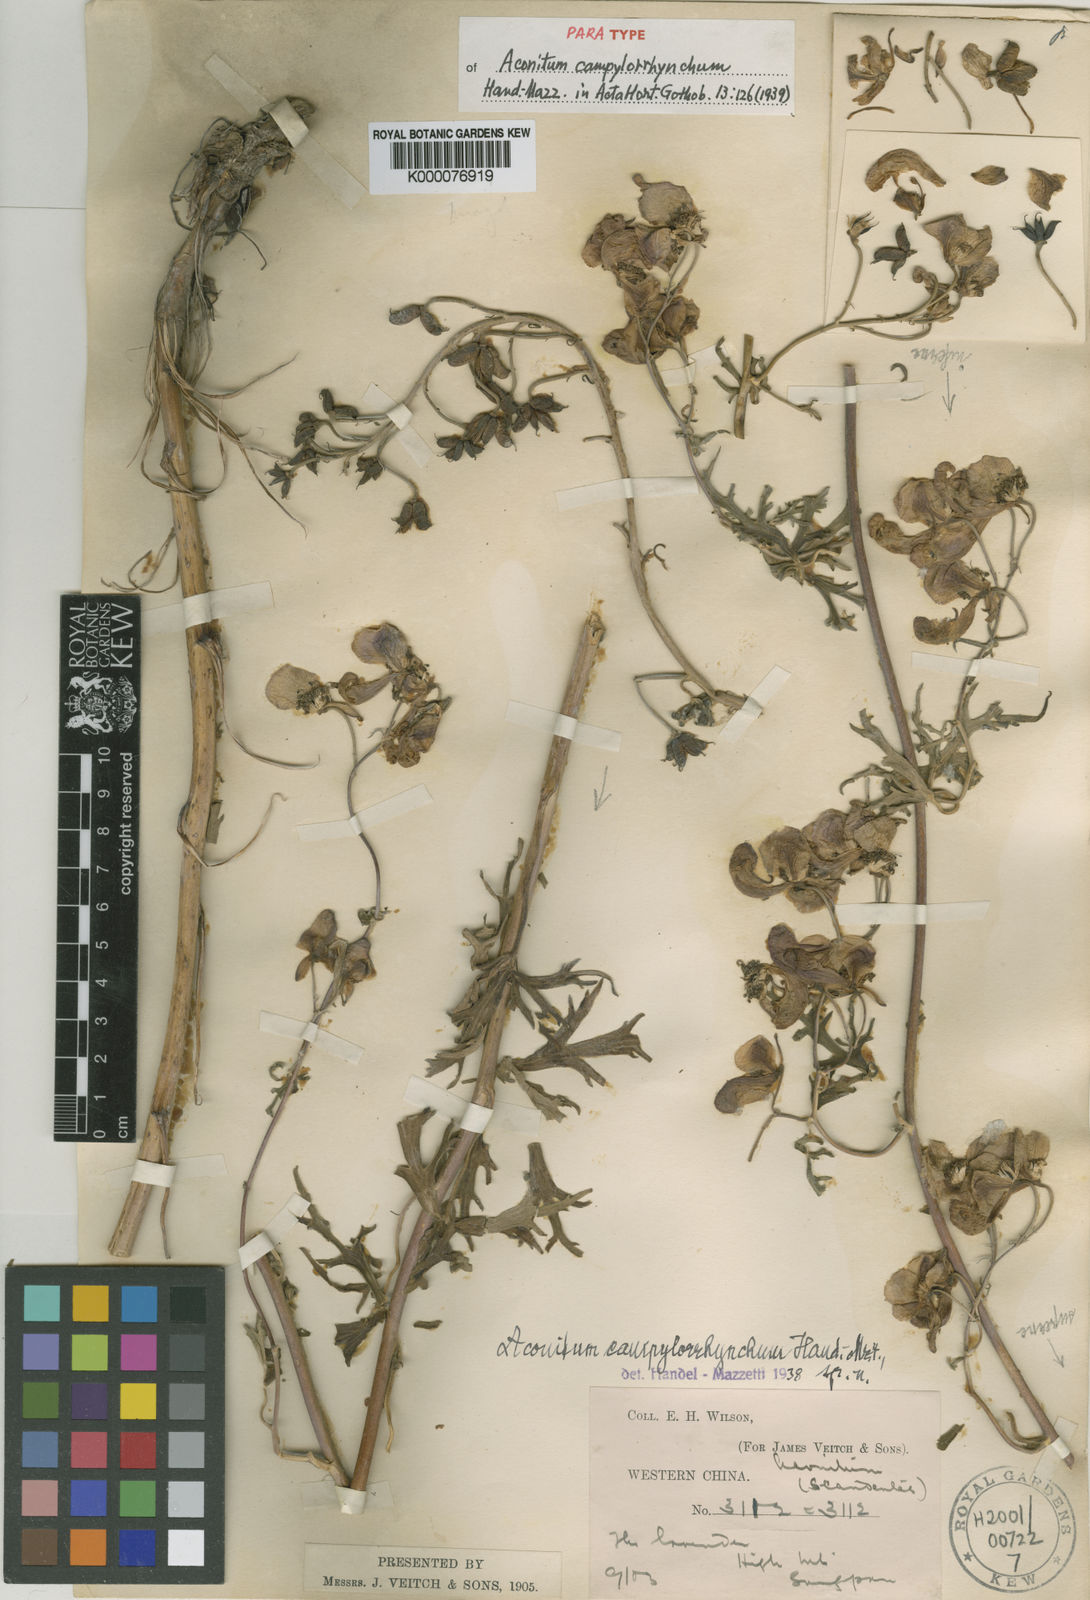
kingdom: Plantae
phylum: Tracheophyta
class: Magnoliopsida
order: Ranunculales
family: Ranunculaceae
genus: Aconitum
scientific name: Aconitum campylorrhynchum
